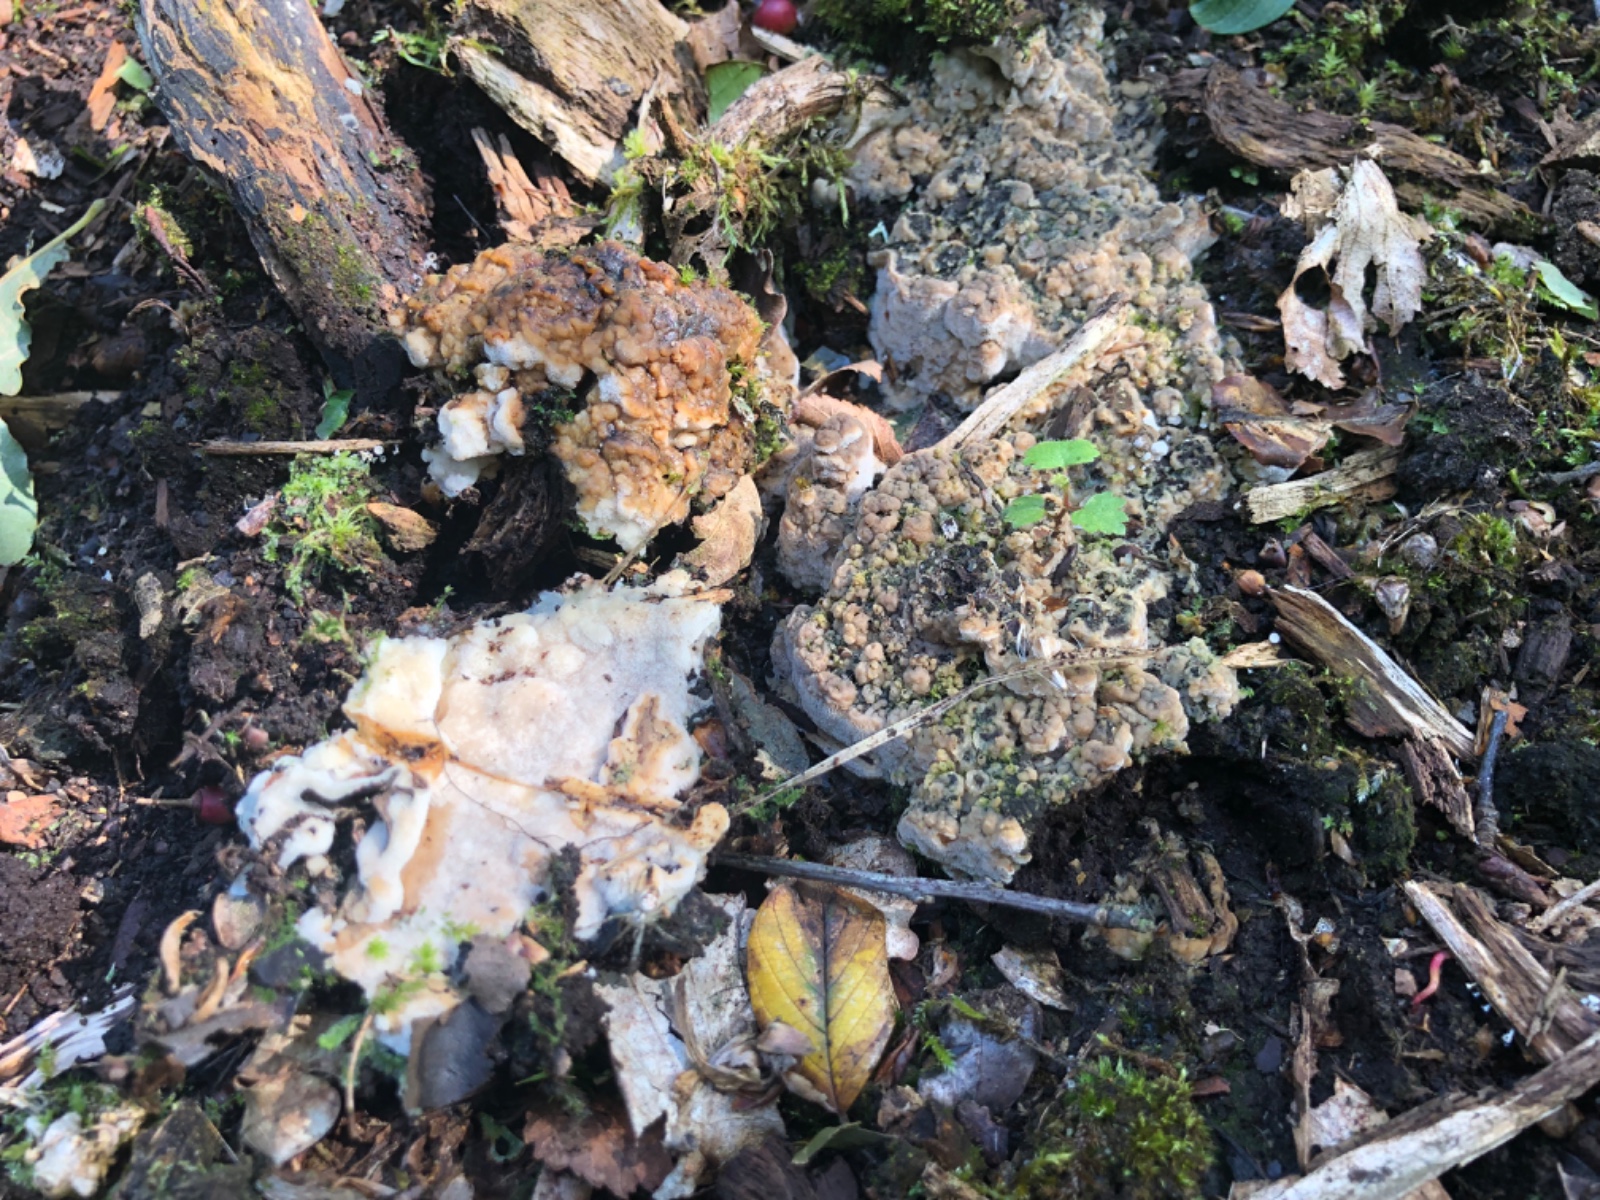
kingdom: Fungi
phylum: Basidiomycota
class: Agaricomycetes
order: Polyporales
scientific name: Polyporales
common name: poresvampordenen
